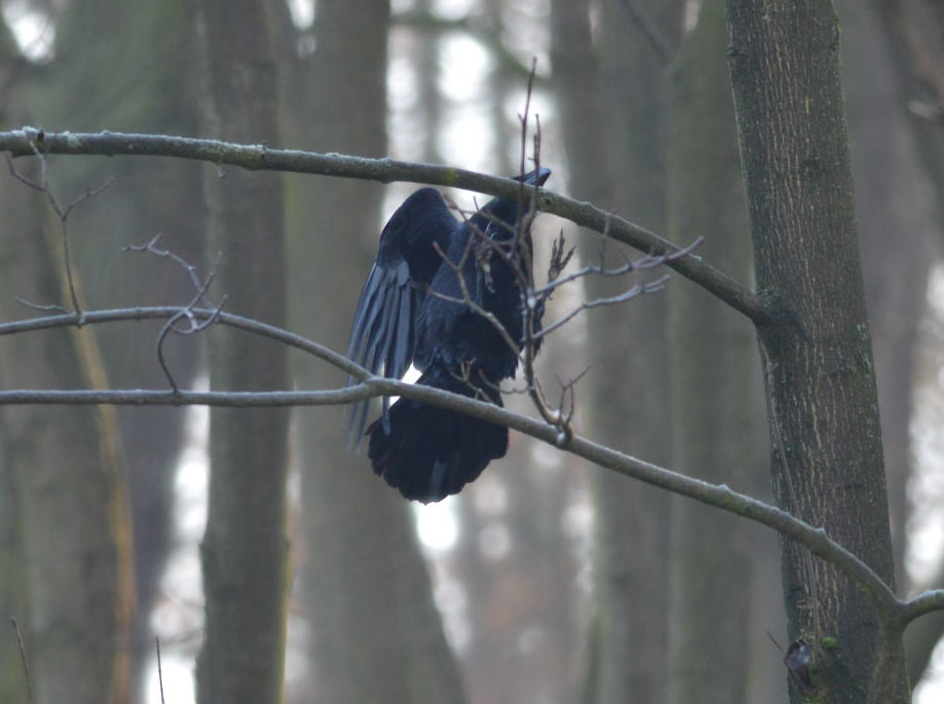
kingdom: Animalia
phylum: Chordata
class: Aves
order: Passeriformes
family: Corvidae
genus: Corvus
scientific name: Corvus corax
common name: Common raven
